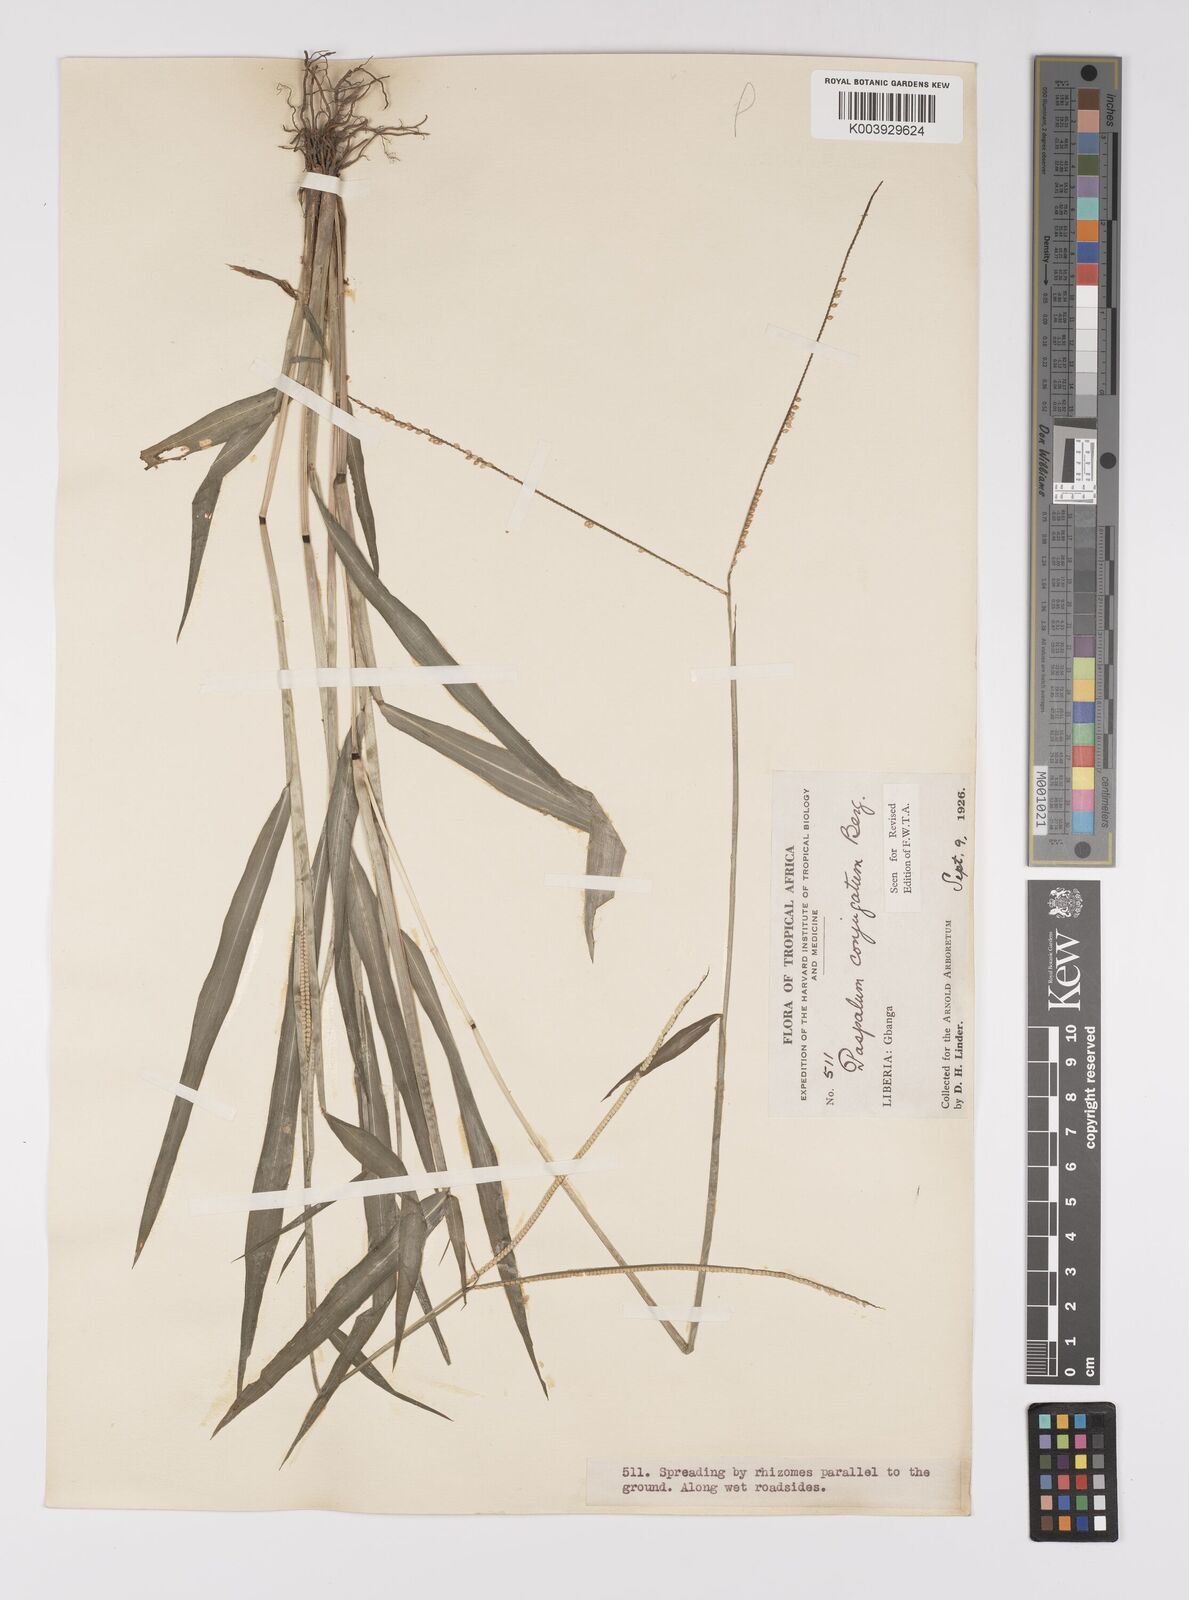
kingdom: Plantae
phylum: Tracheophyta
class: Liliopsida
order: Poales
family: Poaceae
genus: Paspalum
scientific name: Paspalum conjugatum
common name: Hilograss
